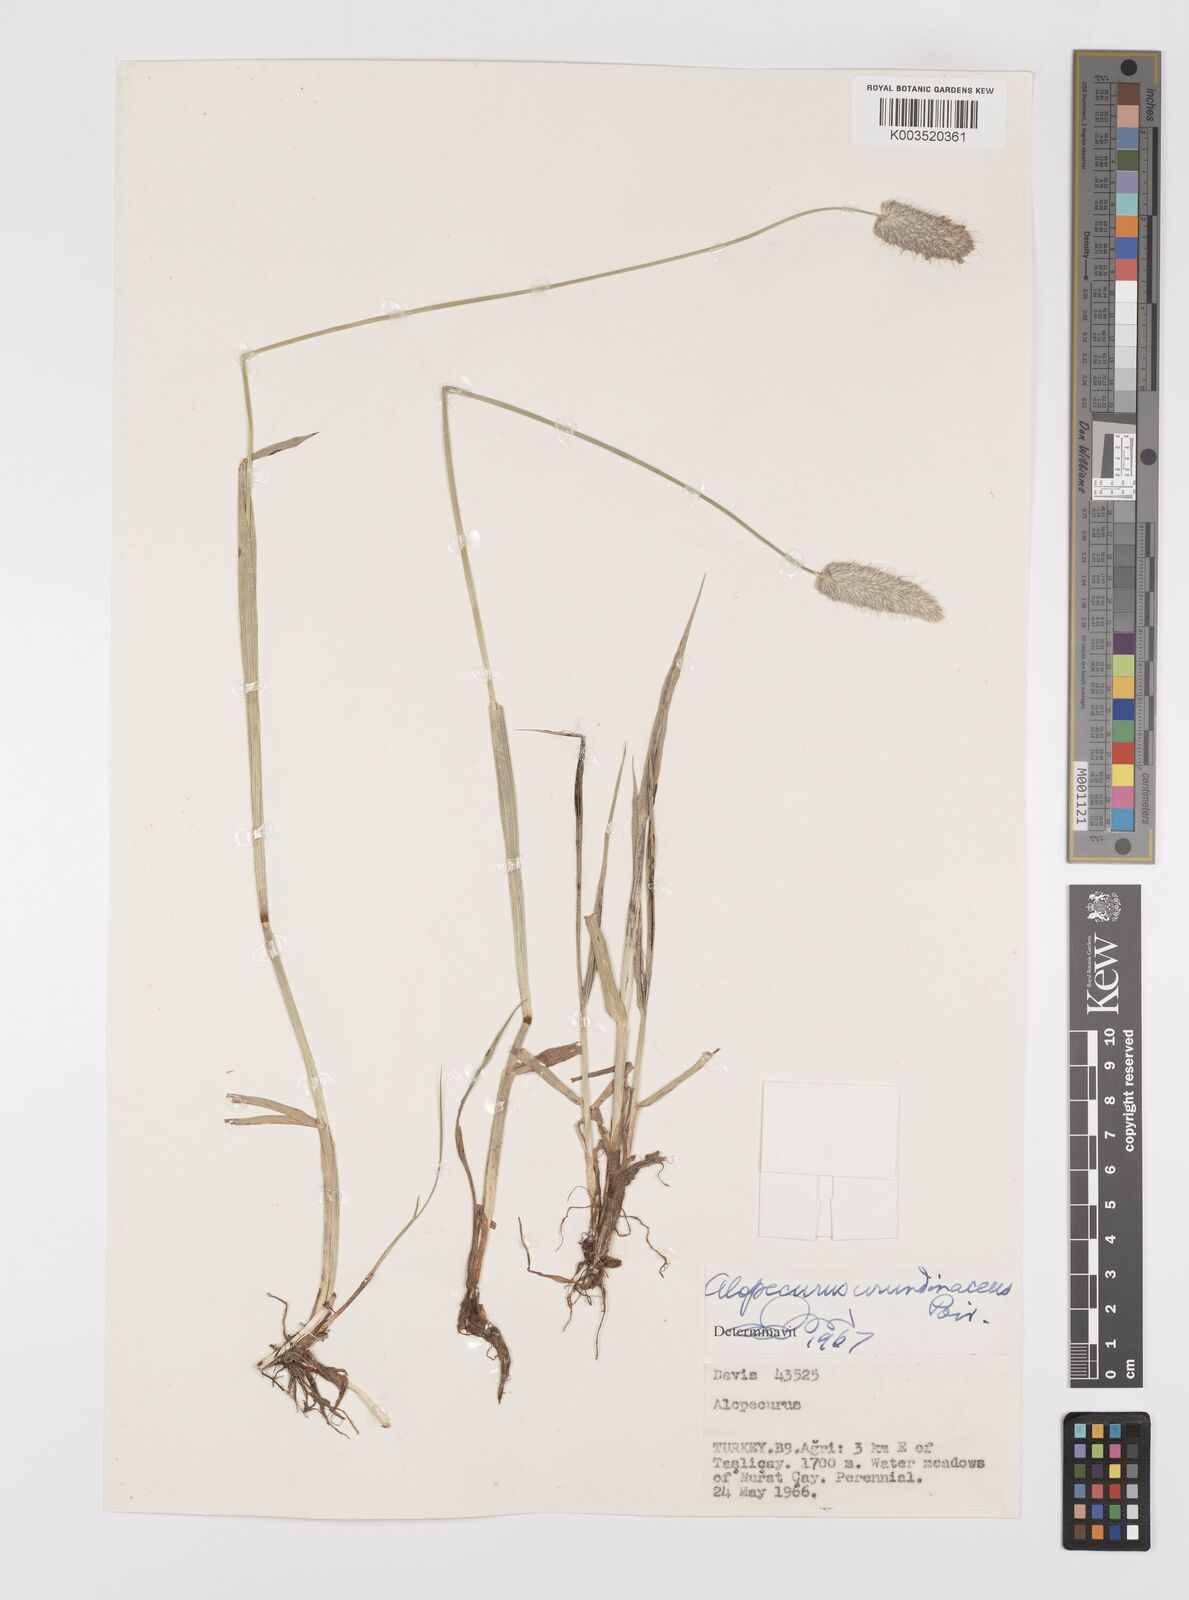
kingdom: Plantae
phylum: Tracheophyta
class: Liliopsida
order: Poales
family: Poaceae
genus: Alopecurus
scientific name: Alopecurus arundinaceus
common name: Creeping meadow foxtail
